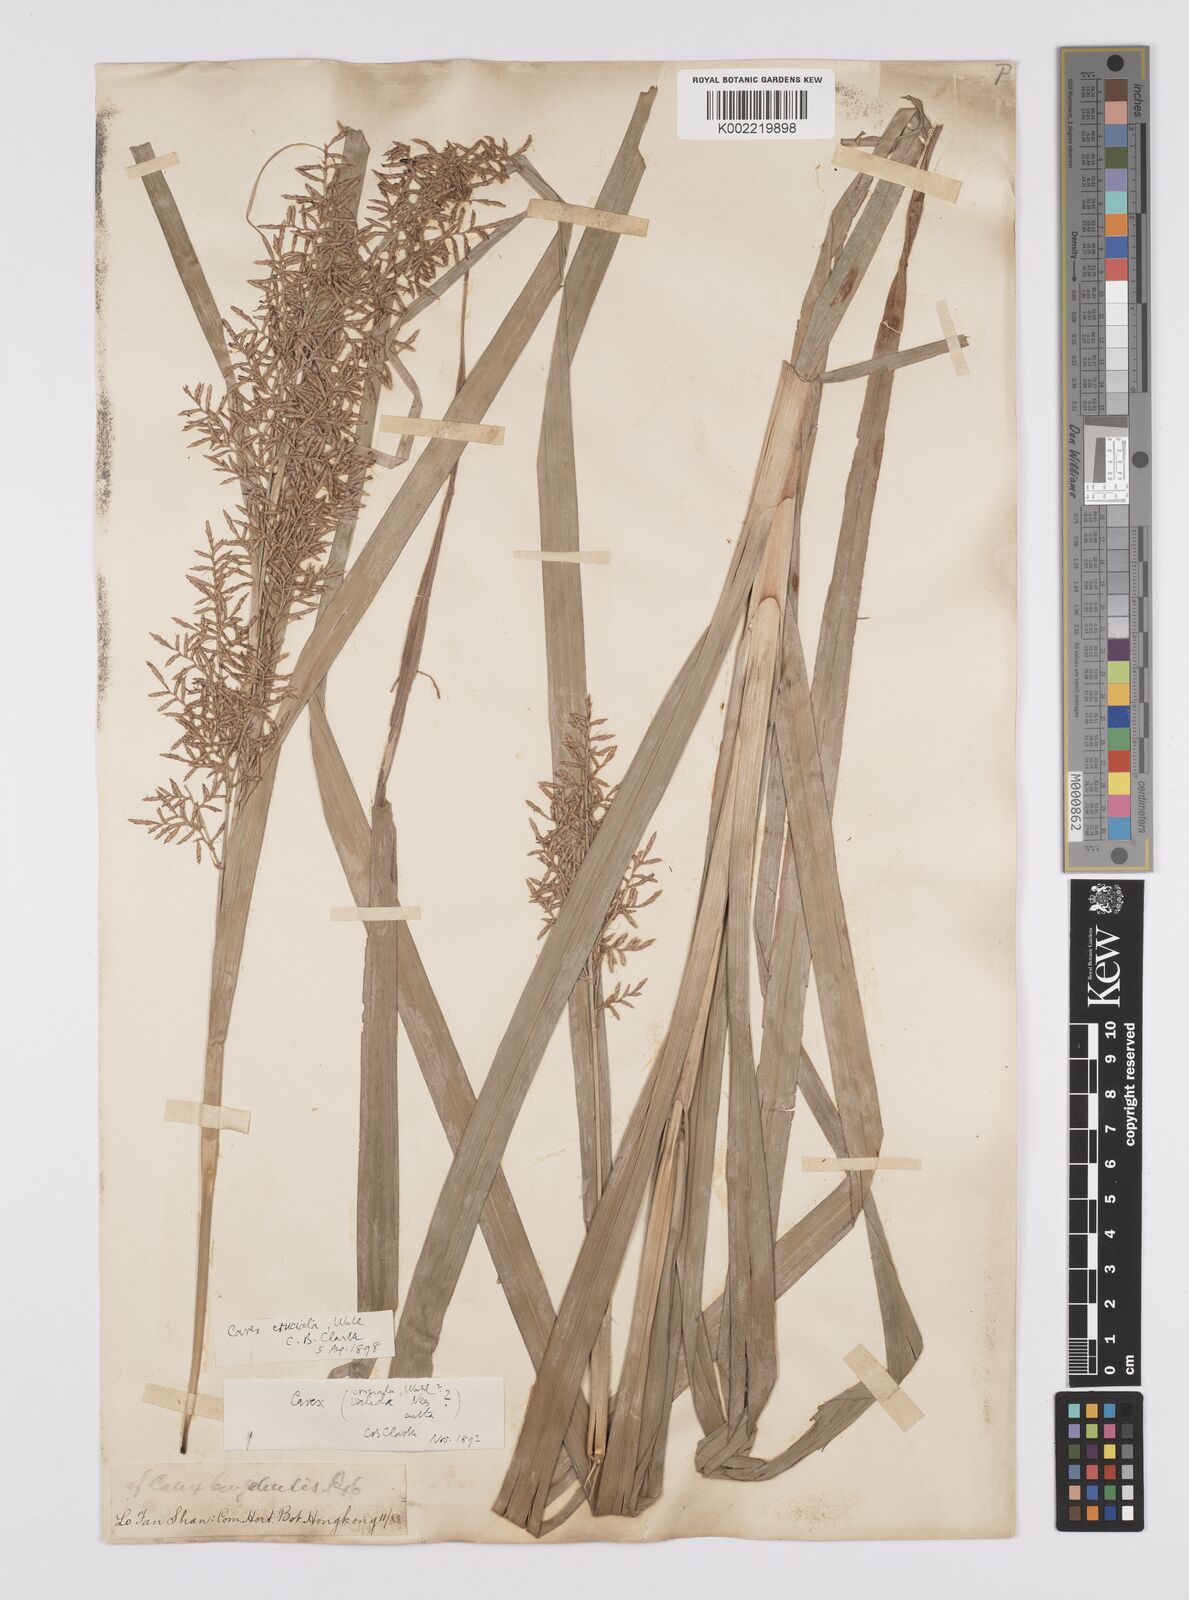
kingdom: Plantae
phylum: Tracheophyta
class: Liliopsida
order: Poales
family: Cyperaceae
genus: Carex
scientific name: Carex cruciata
